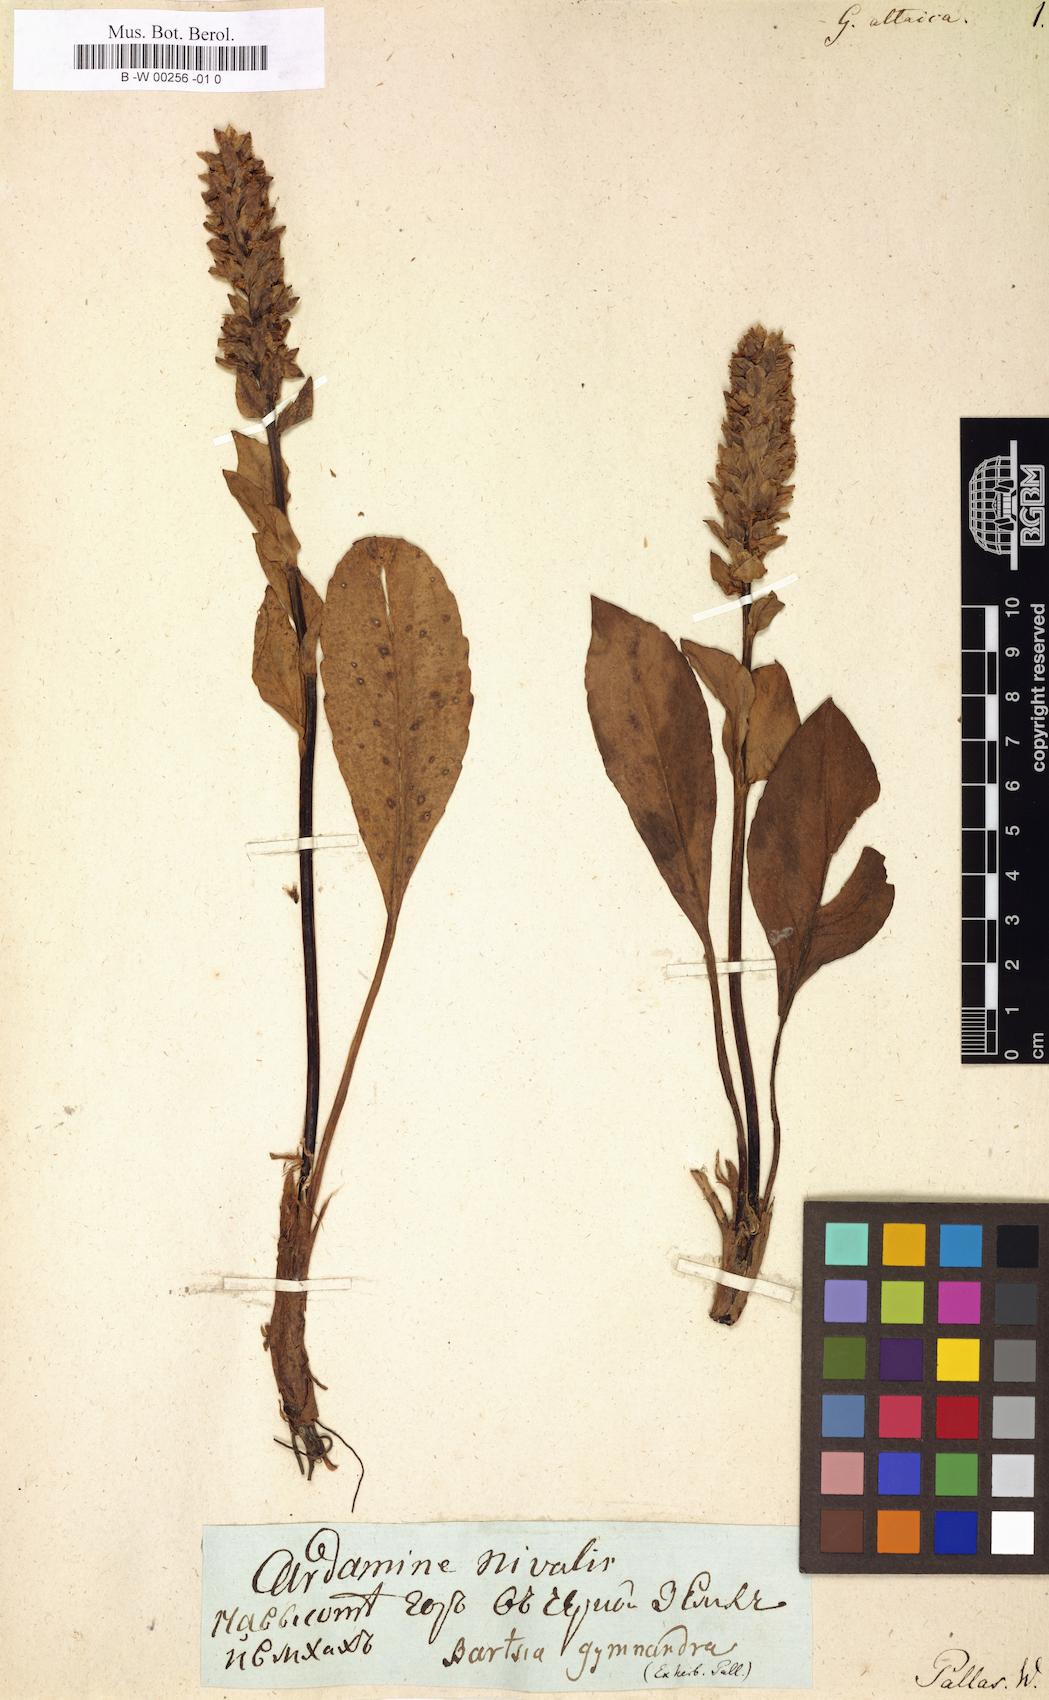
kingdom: Plantae
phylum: Tracheophyta
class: Magnoliopsida
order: Lamiales
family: Plantaginaceae
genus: Lagotis
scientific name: Lagotis integrifolia
